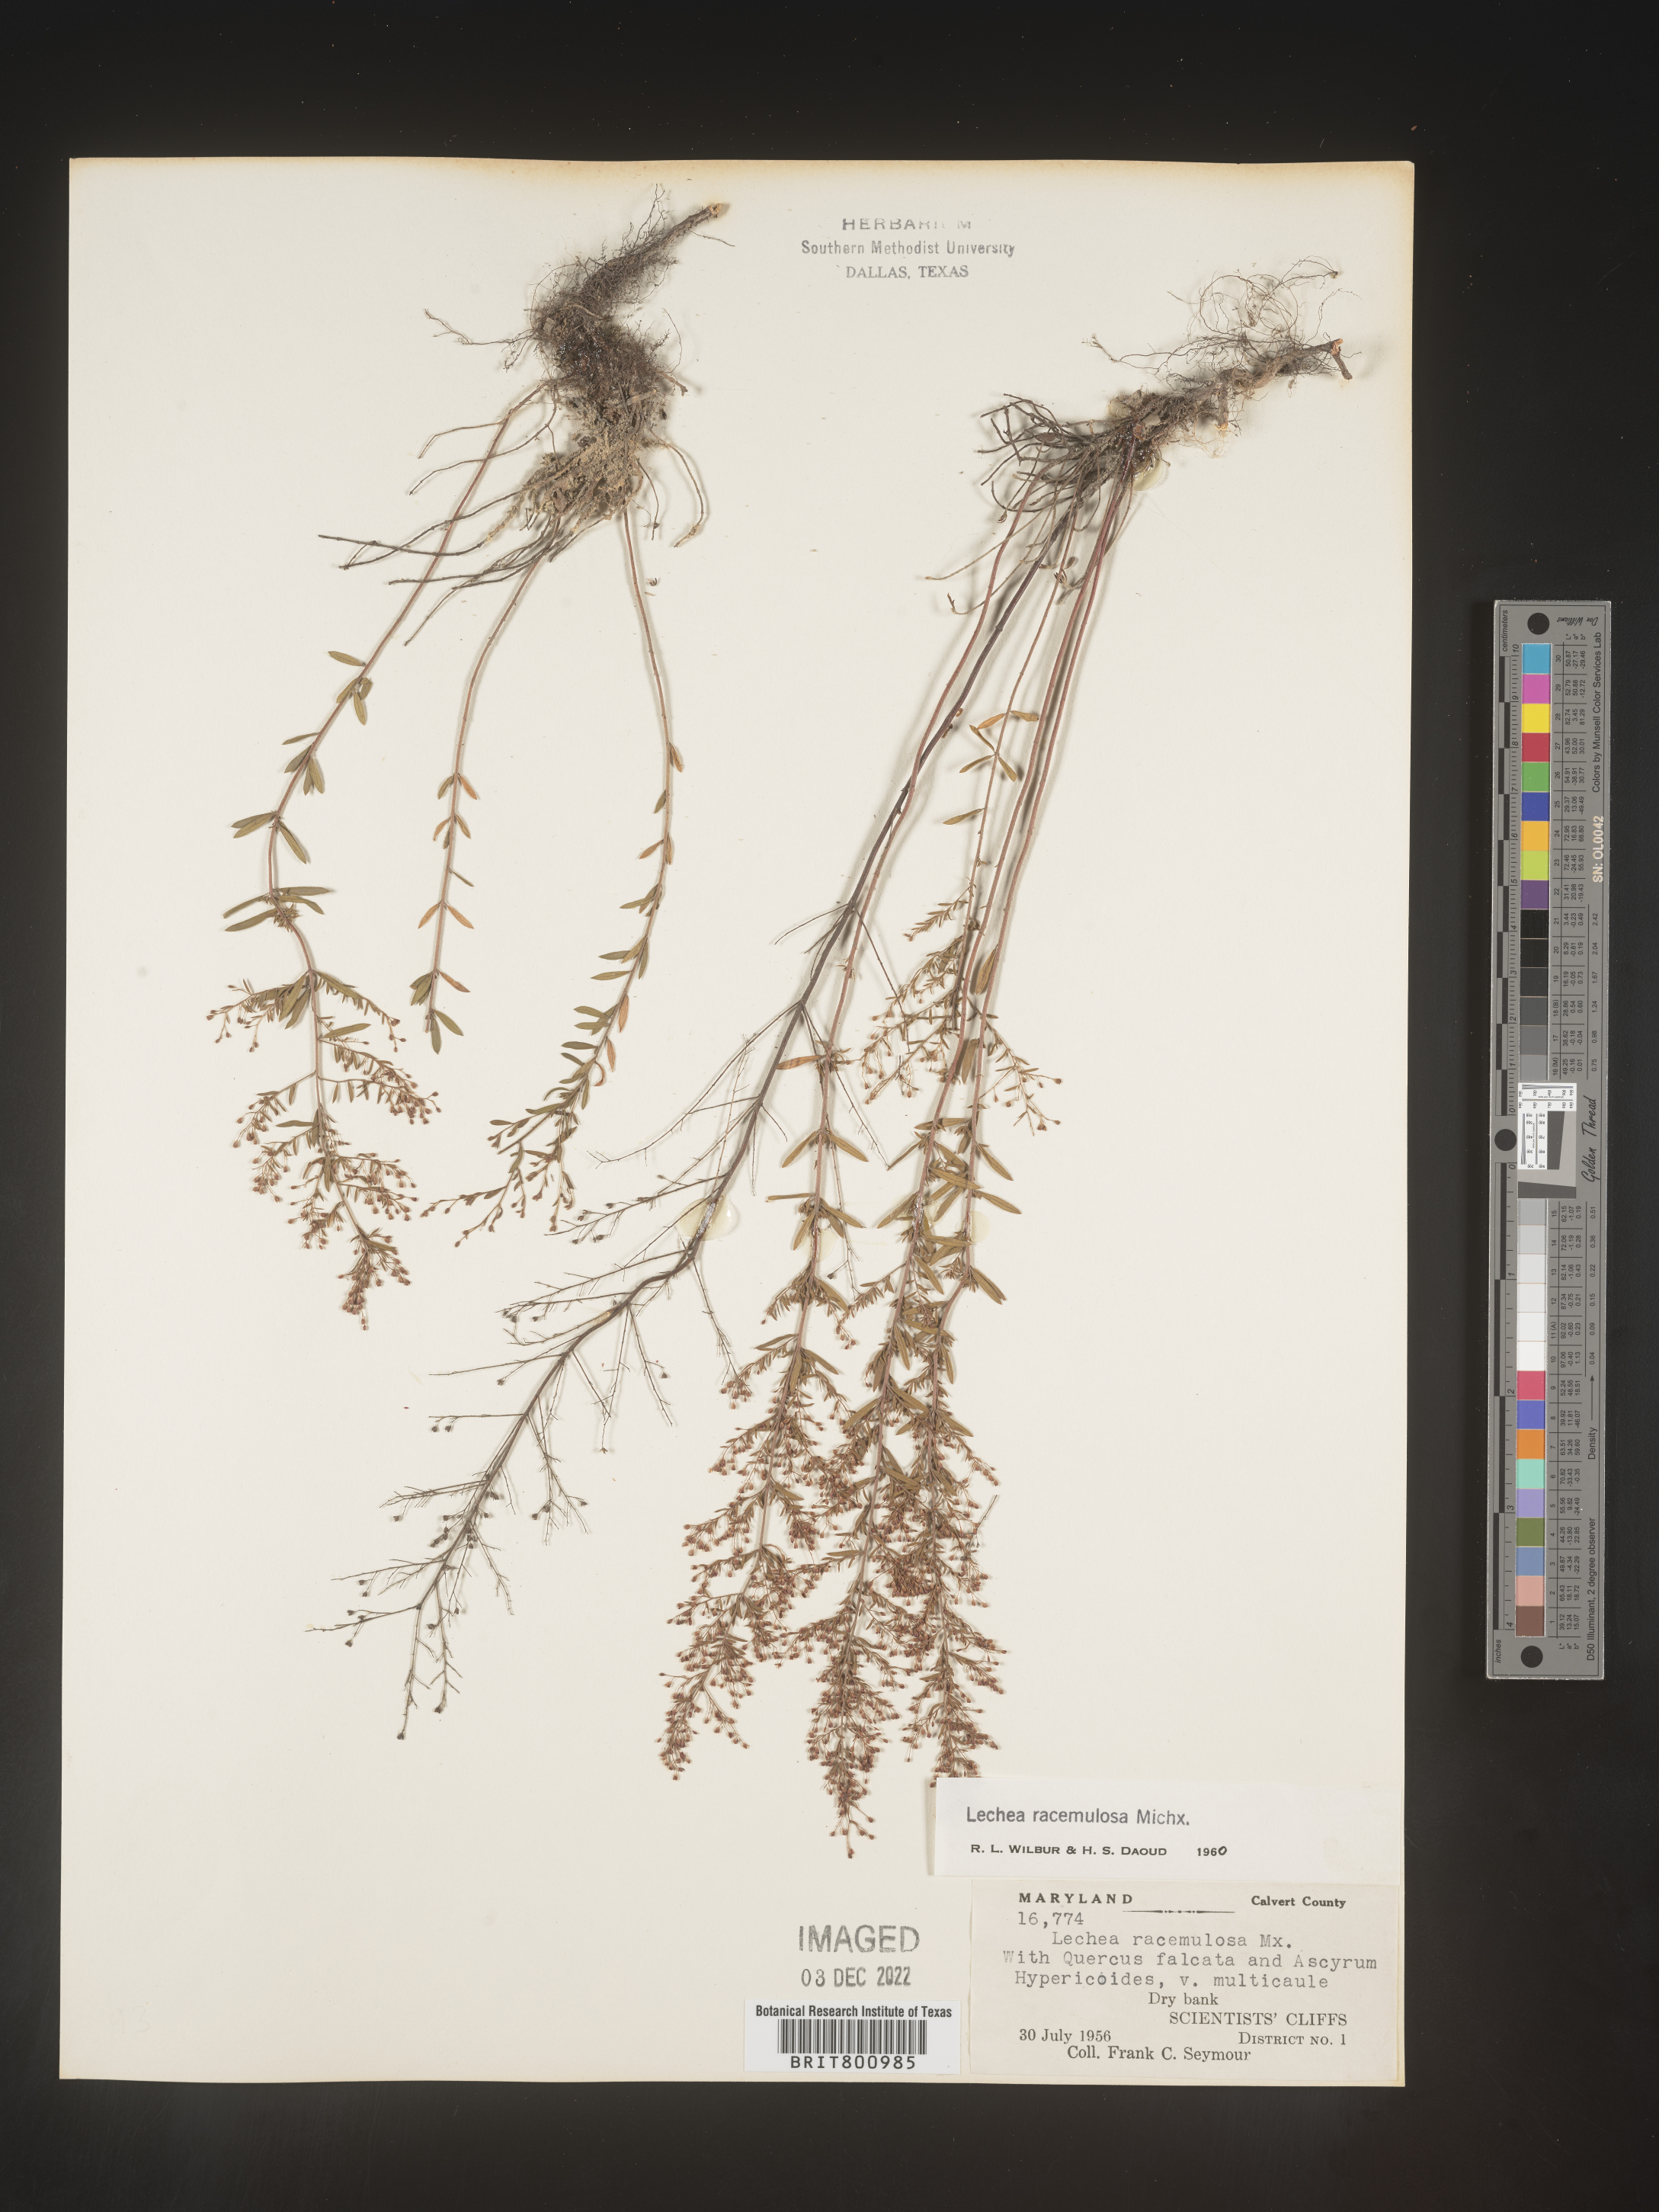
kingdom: Plantae
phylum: Tracheophyta
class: Magnoliopsida
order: Malvales
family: Cistaceae
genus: Lechea
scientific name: Lechea racemulosa
